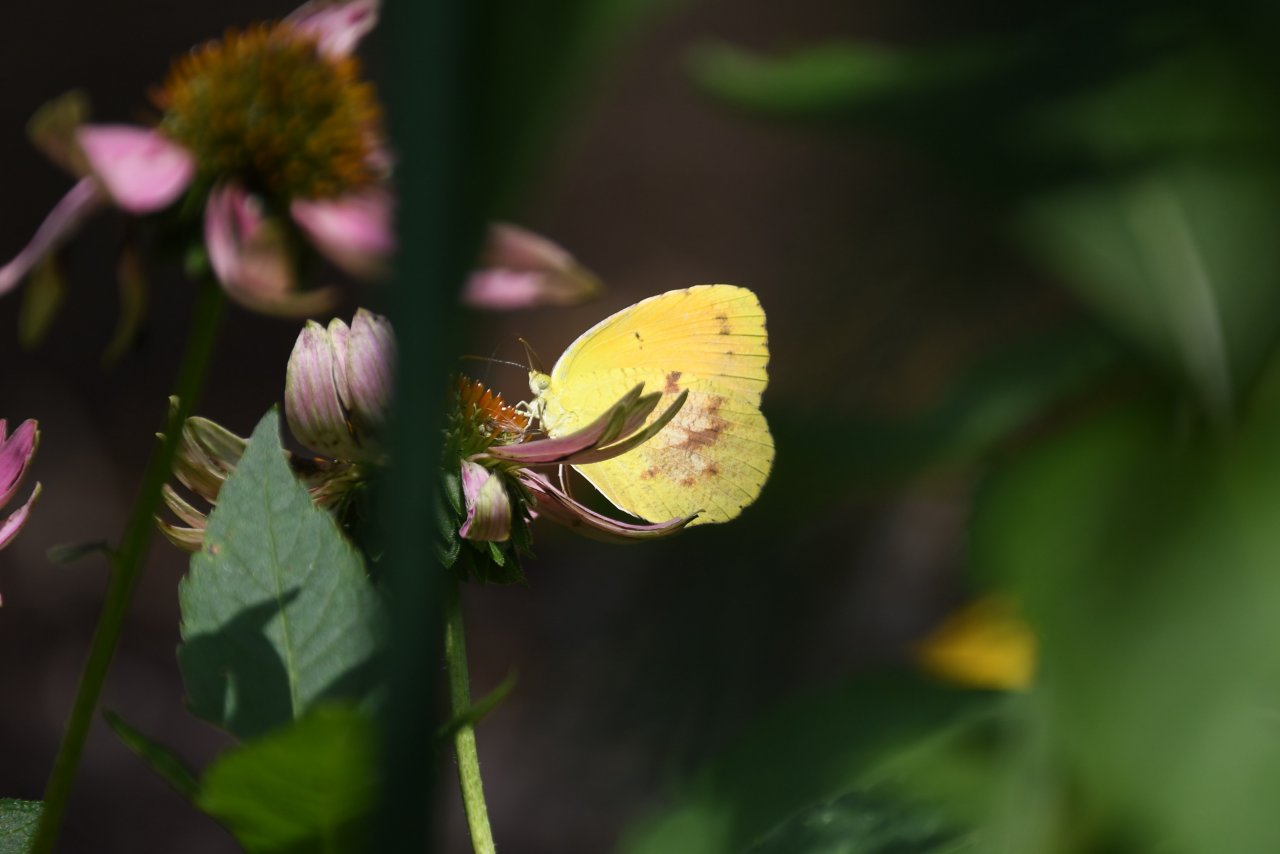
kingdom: Animalia
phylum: Arthropoda
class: Insecta
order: Lepidoptera
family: Pieridae
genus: Abaeis
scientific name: Abaeis nicippe
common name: Sleepy Orange
